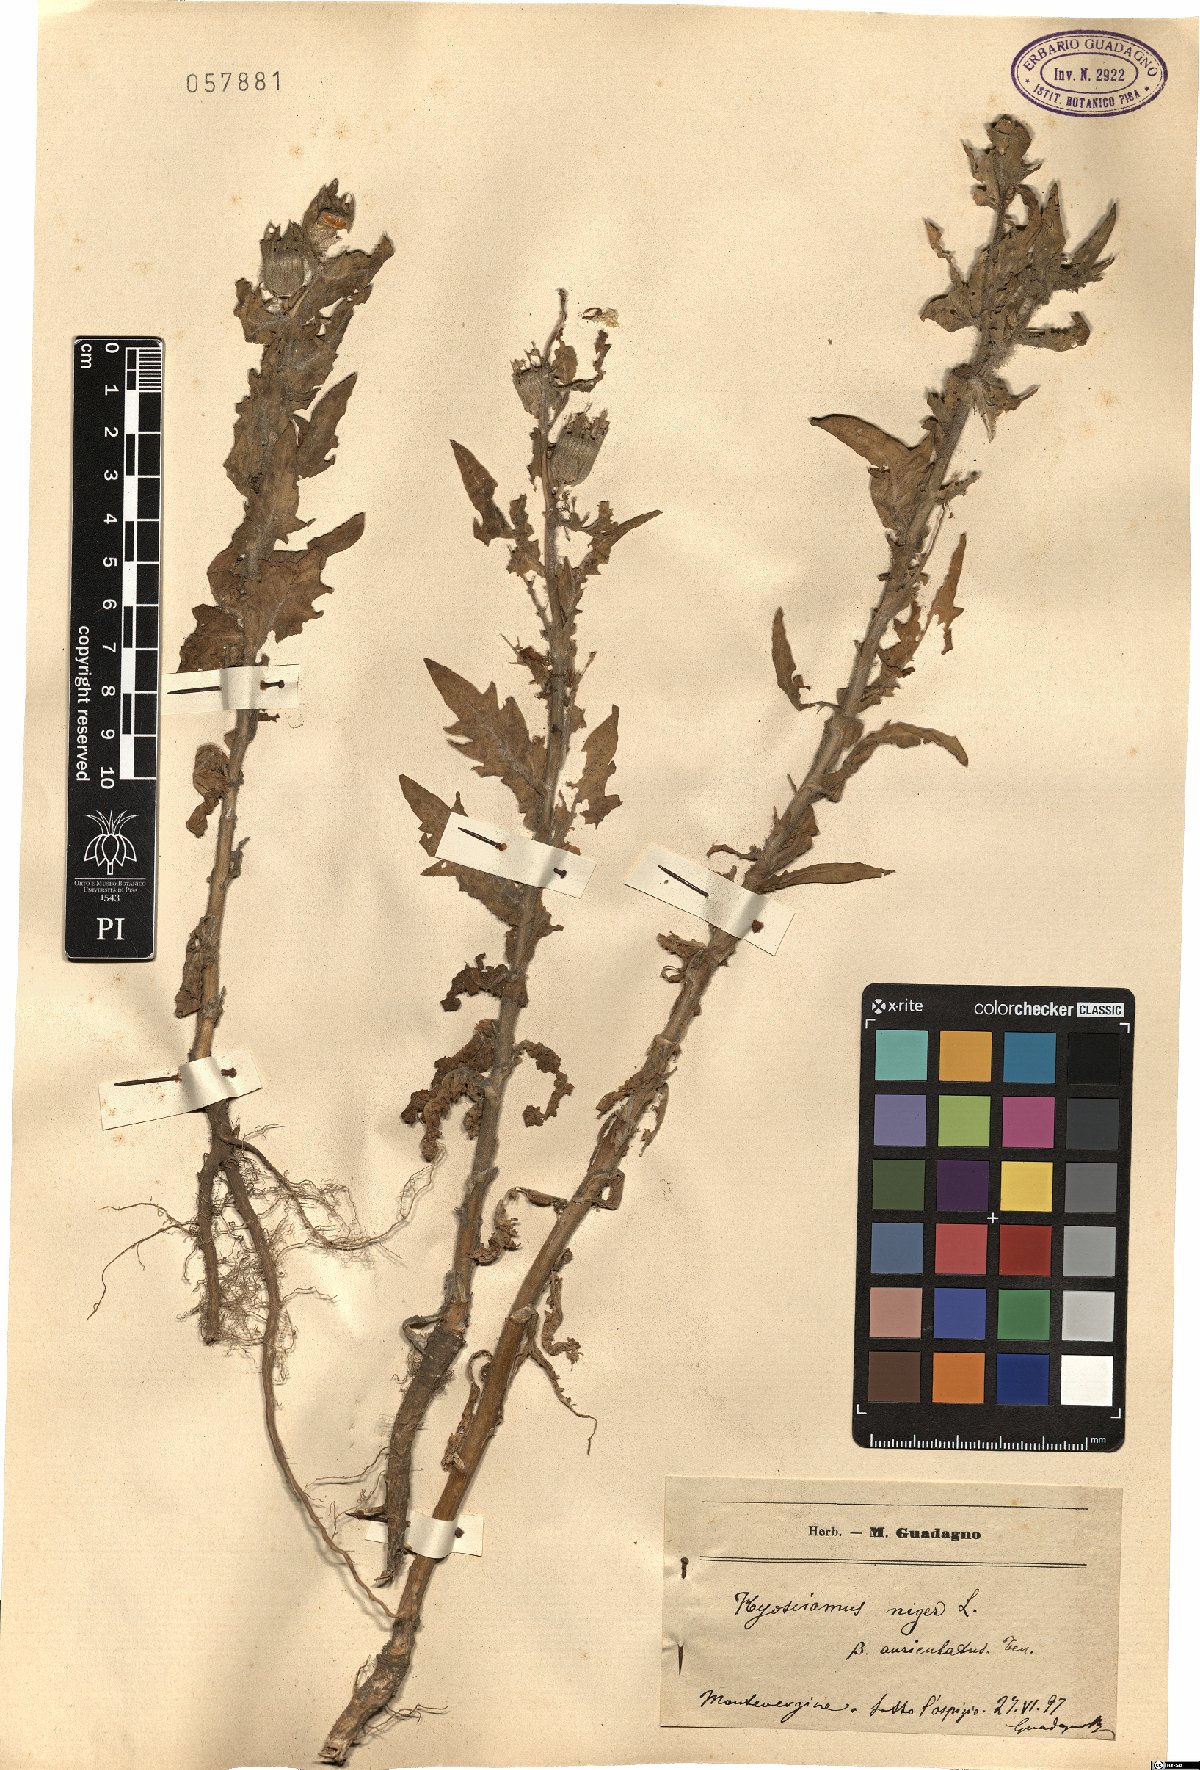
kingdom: Plantae
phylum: Tracheophyta
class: Magnoliopsida
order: Solanales
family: Solanaceae
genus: Hyoscyamus
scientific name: Hyoscyamus niger
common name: Henbane
